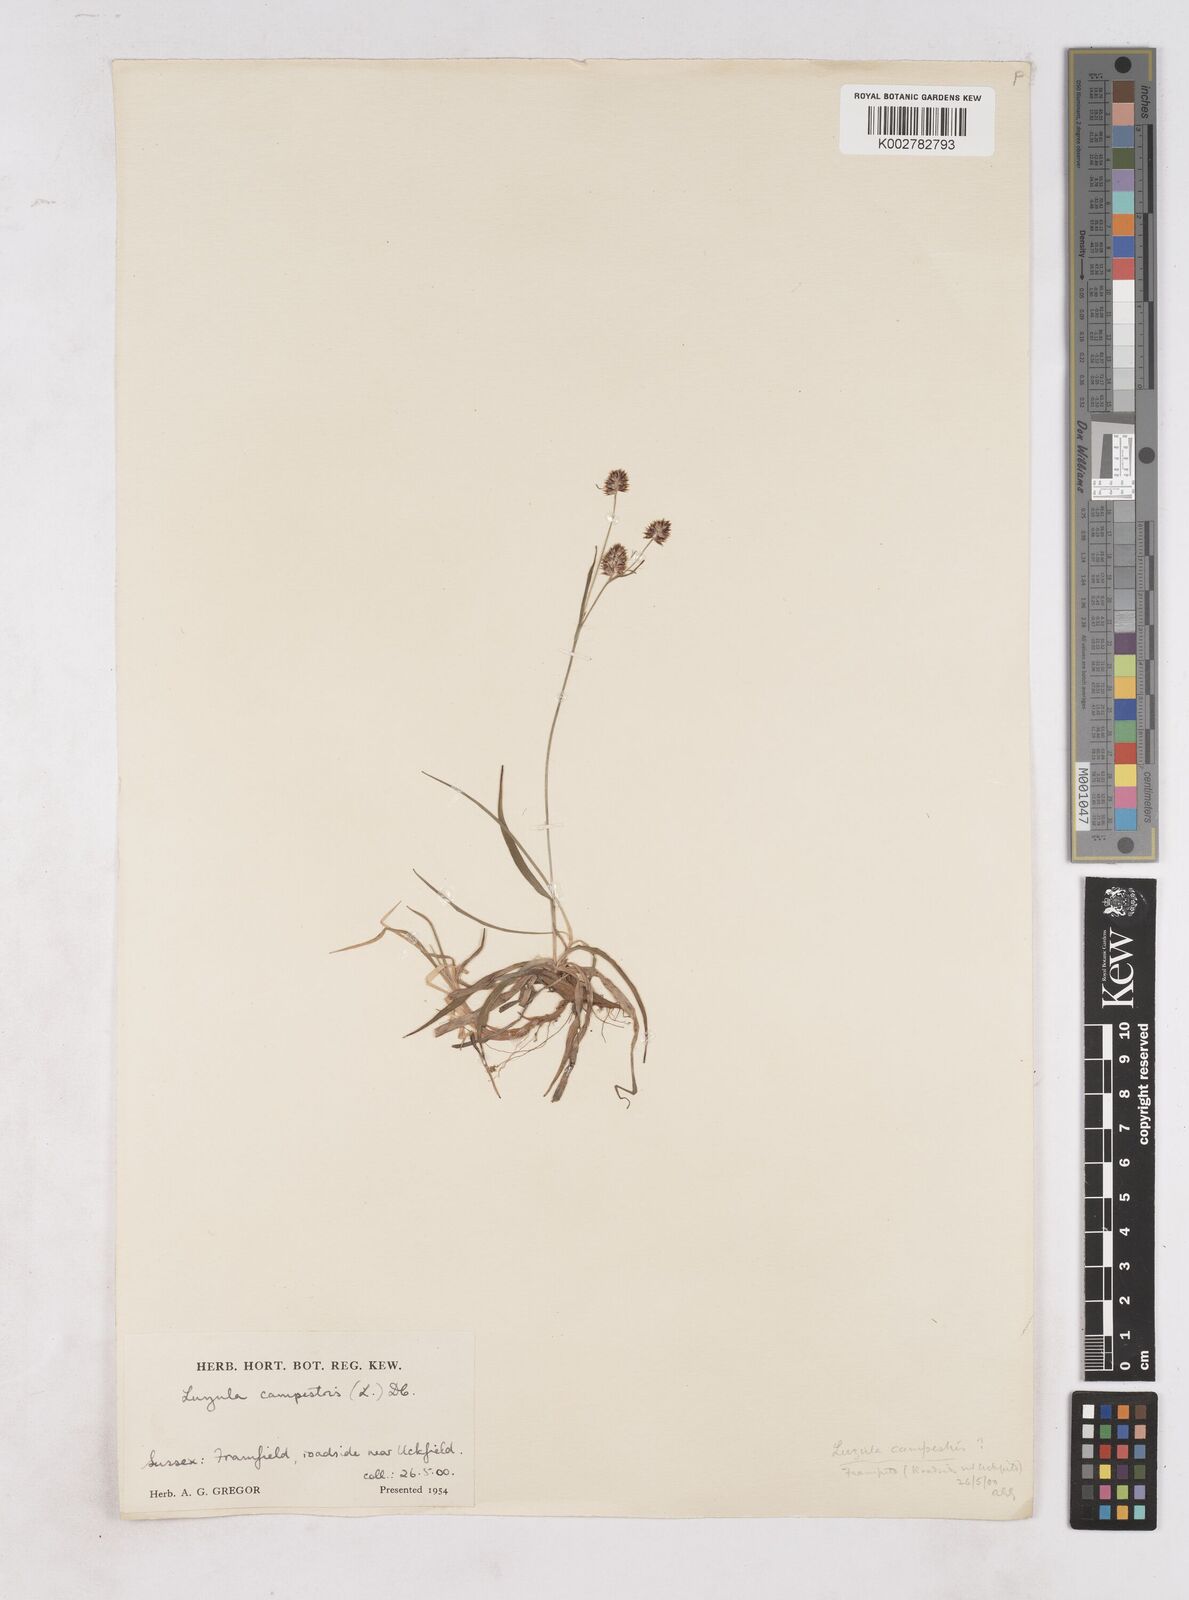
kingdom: Plantae
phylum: Tracheophyta
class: Liliopsida
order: Poales
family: Juncaceae
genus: Luzula
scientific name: Luzula campestris
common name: Field wood-rush
